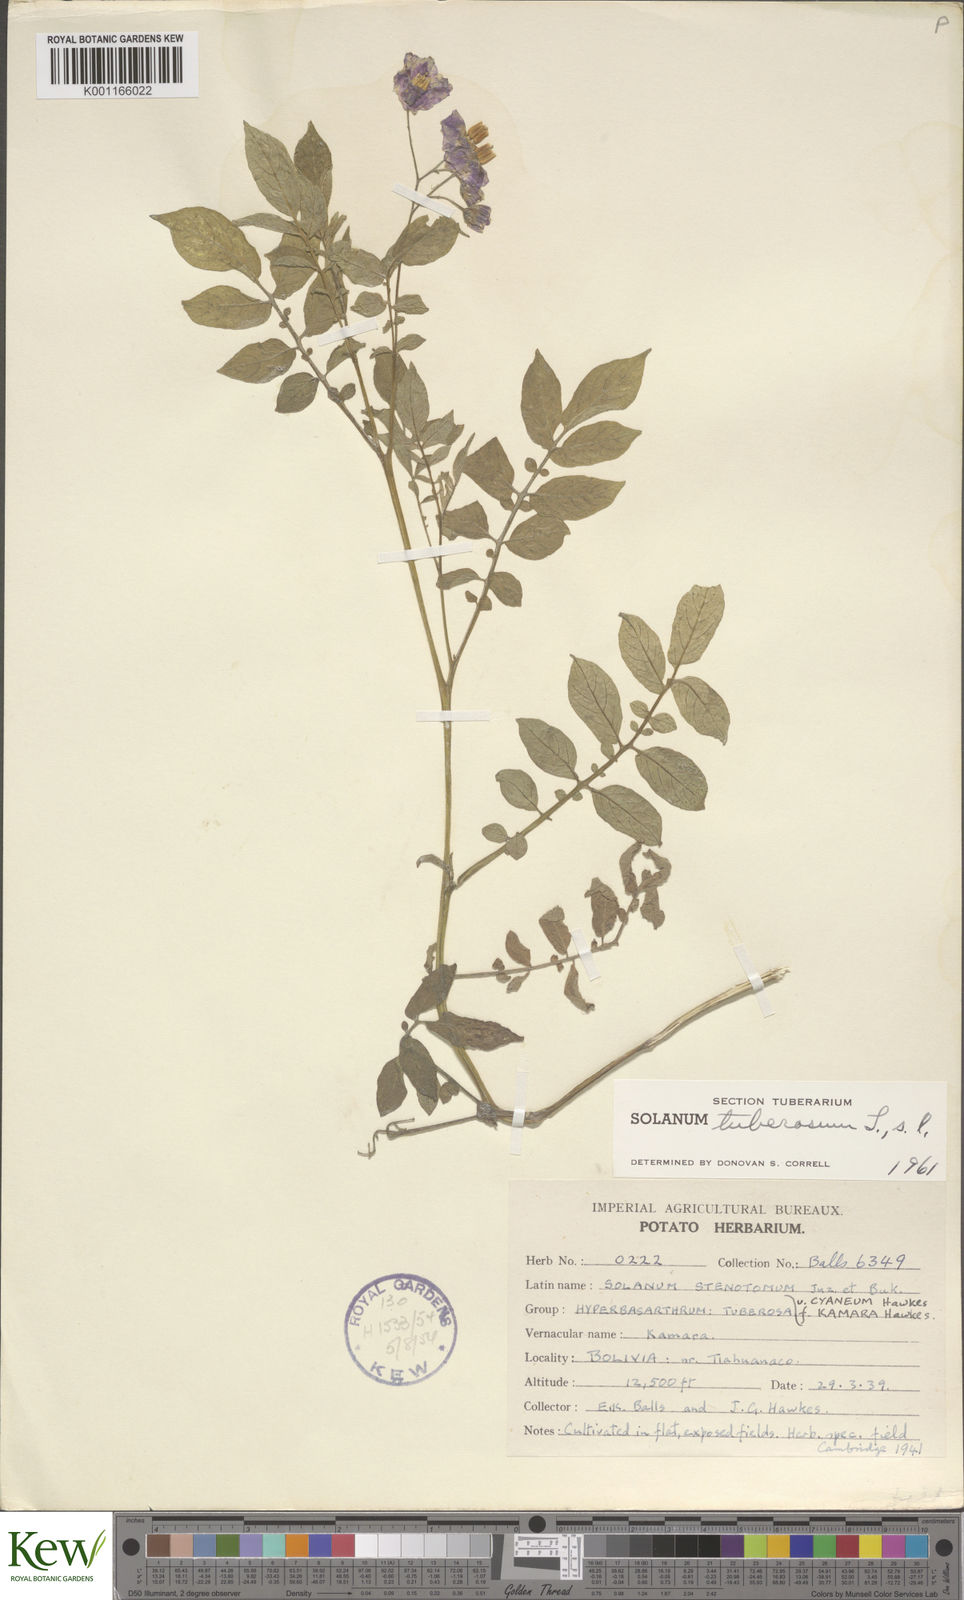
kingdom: Plantae
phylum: Tracheophyta
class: Magnoliopsida
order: Solanales
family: Solanaceae
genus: Solanum
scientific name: Solanum tuberosum
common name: Potato
